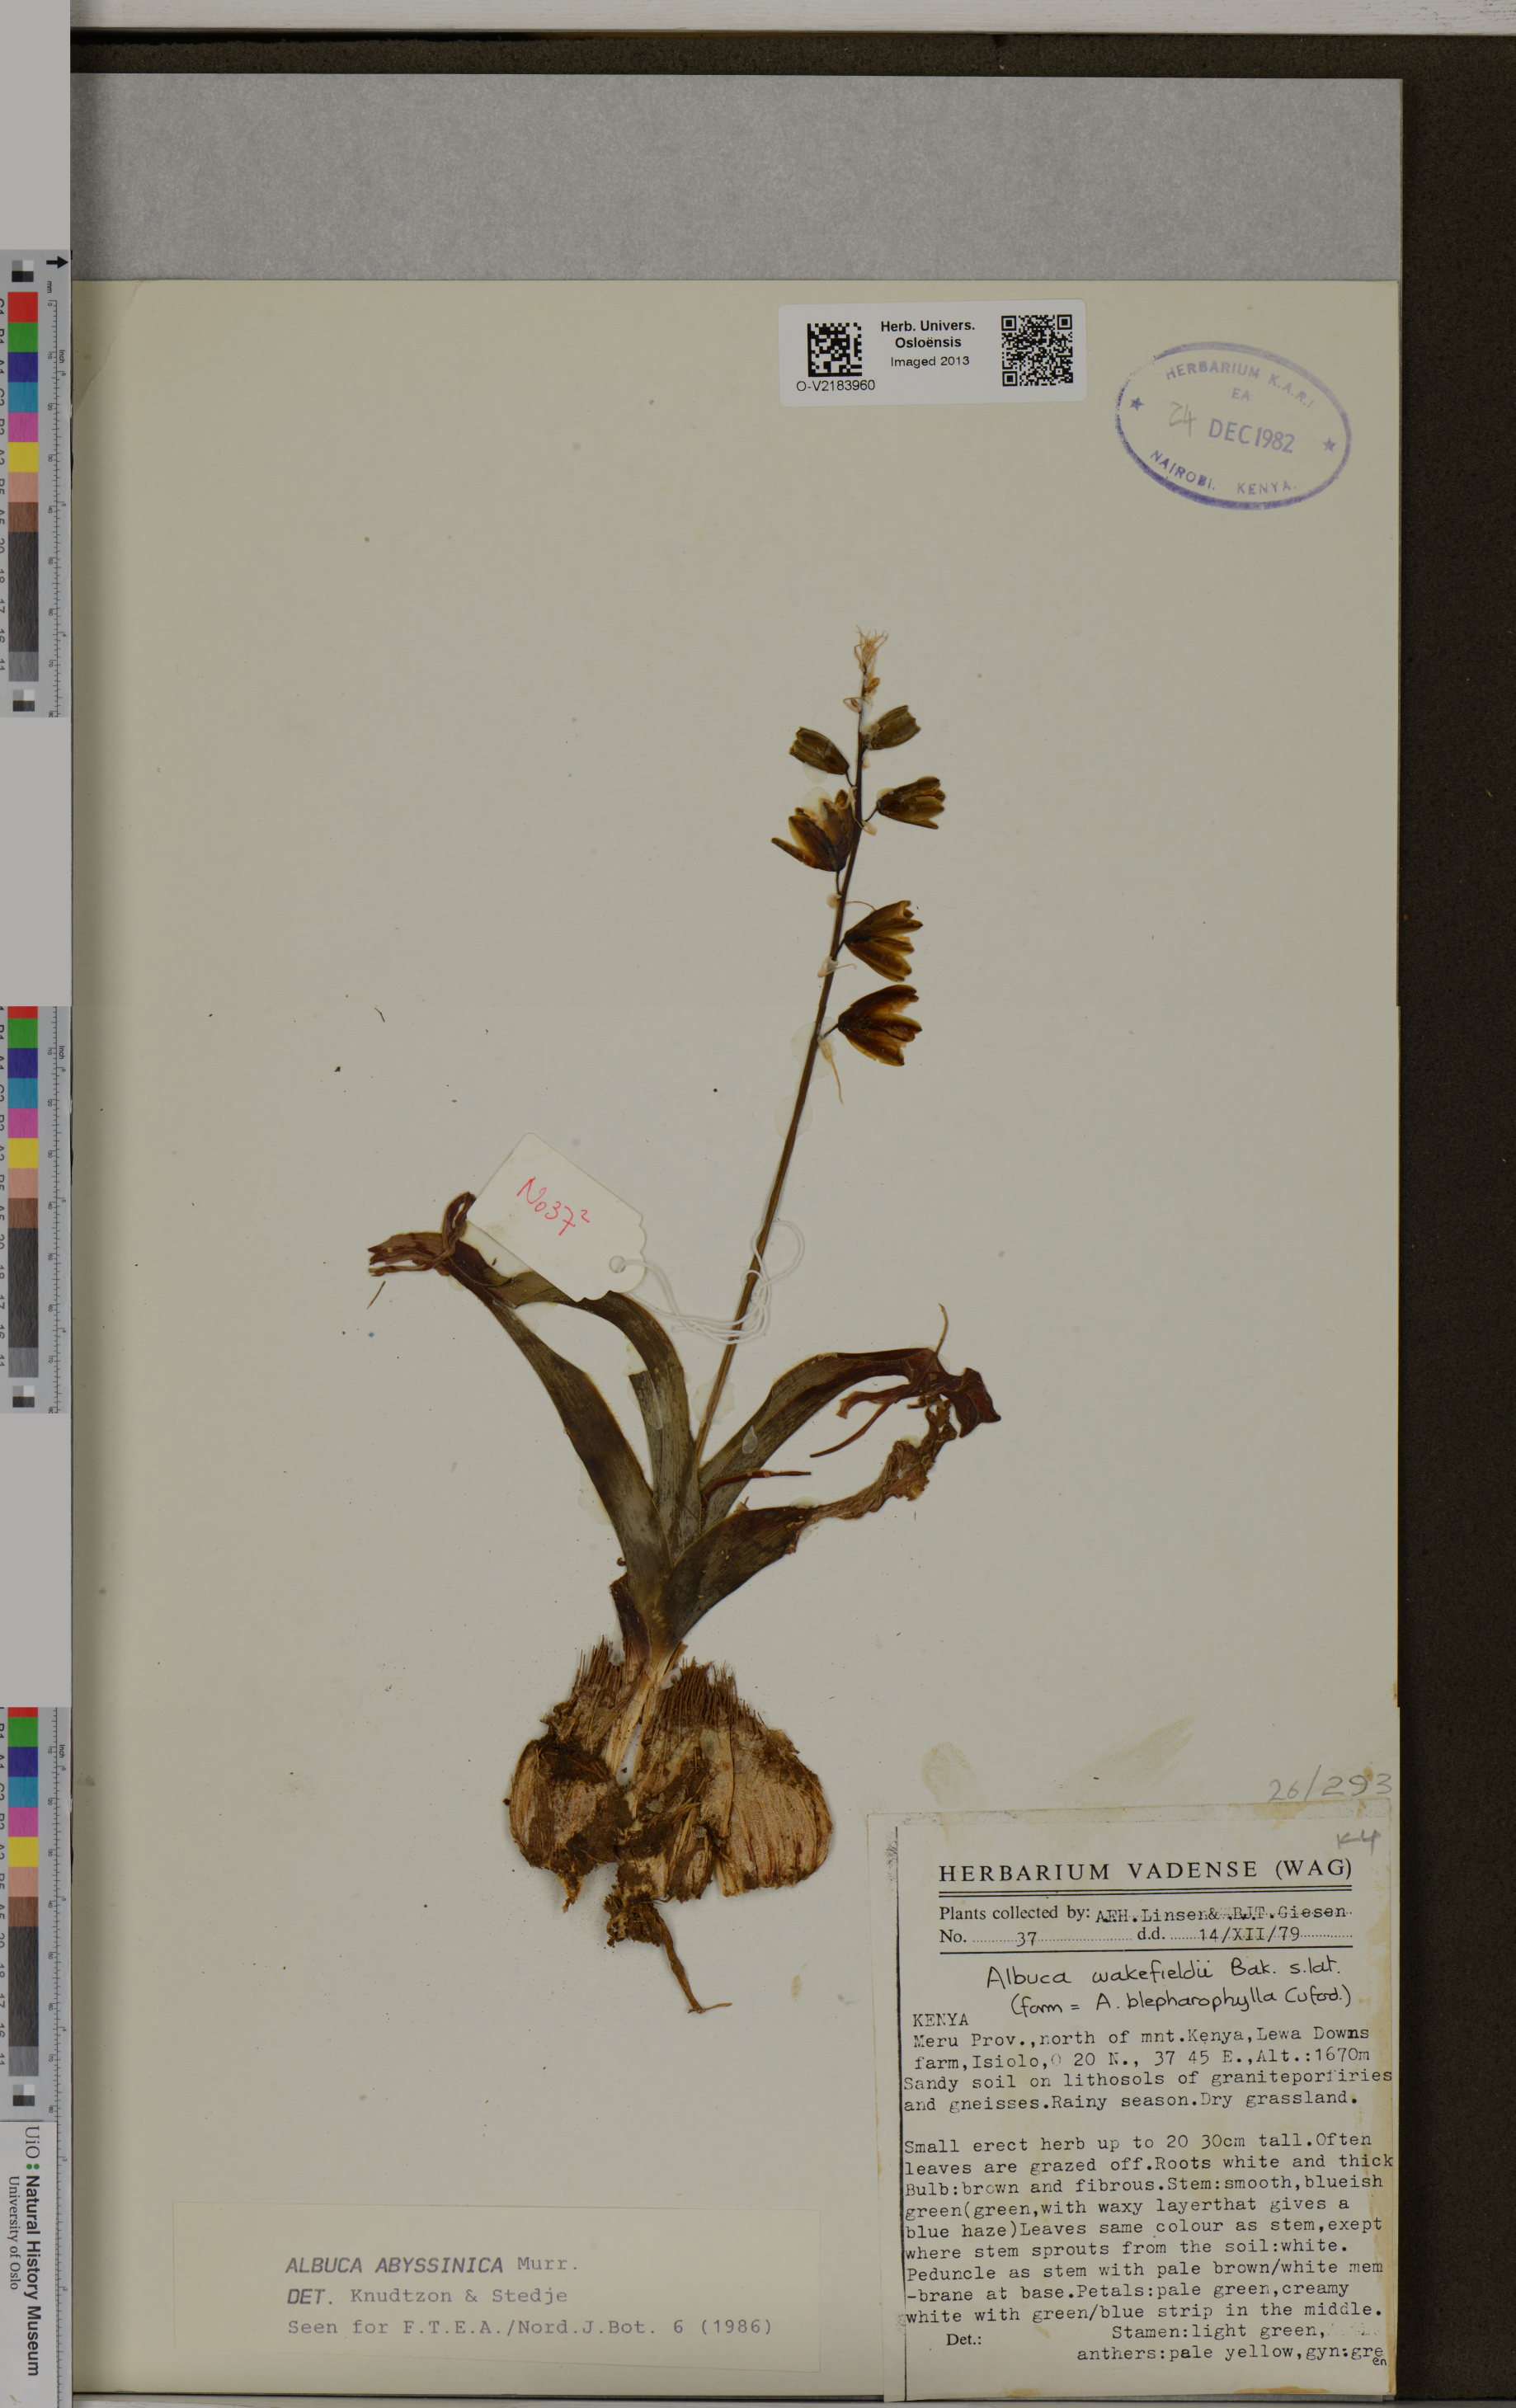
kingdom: Plantae
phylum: Tracheophyta
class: Liliopsida
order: Asparagales
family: Asparagaceae
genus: Albuca
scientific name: Albuca abyssinica
